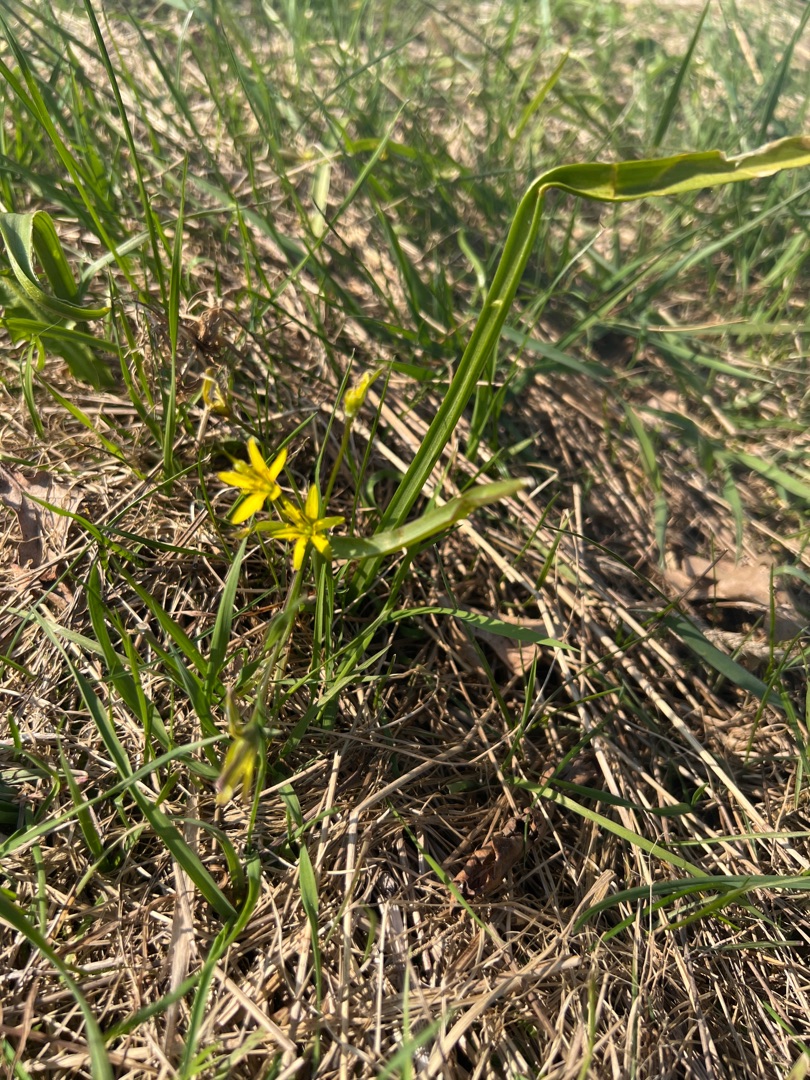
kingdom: Plantae
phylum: Tracheophyta
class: Liliopsida
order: Liliales
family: Liliaceae
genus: Gagea
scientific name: Gagea lutea
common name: Almindelig guldstjerne
